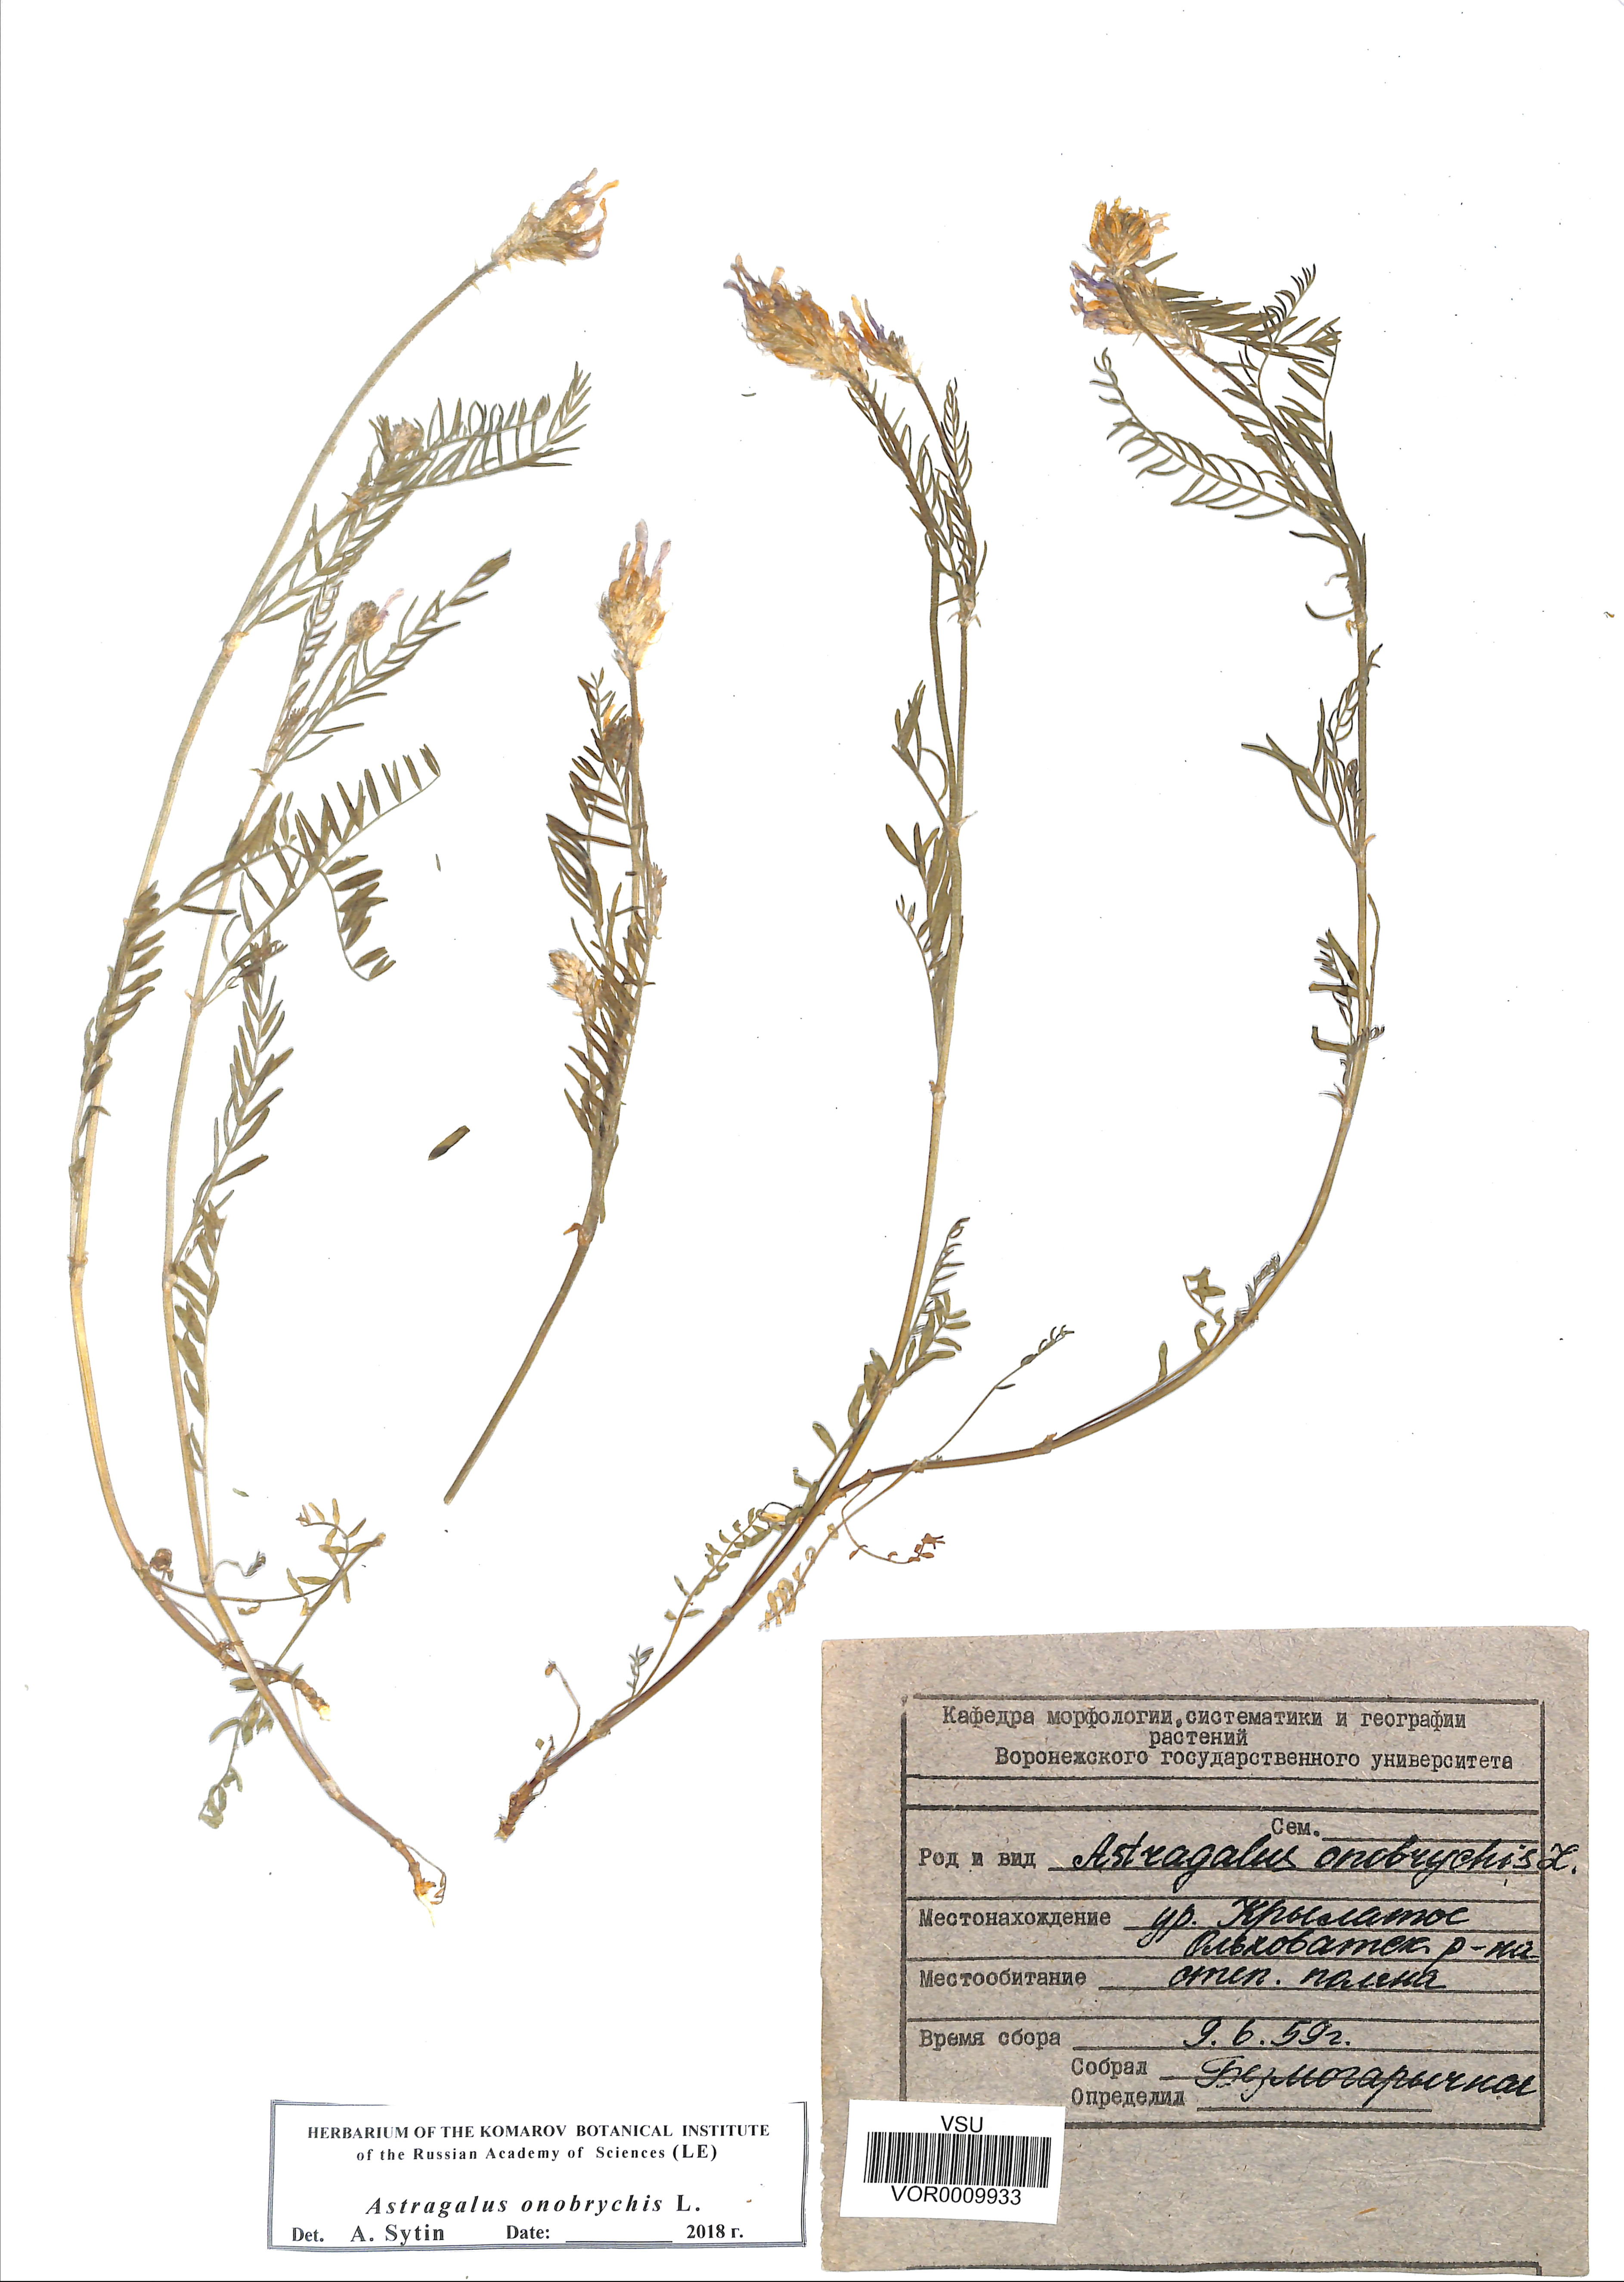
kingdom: Plantae
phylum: Tracheophyta
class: Magnoliopsida
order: Fabales
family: Fabaceae
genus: Astragalus
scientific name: Astragalus onobrychis
